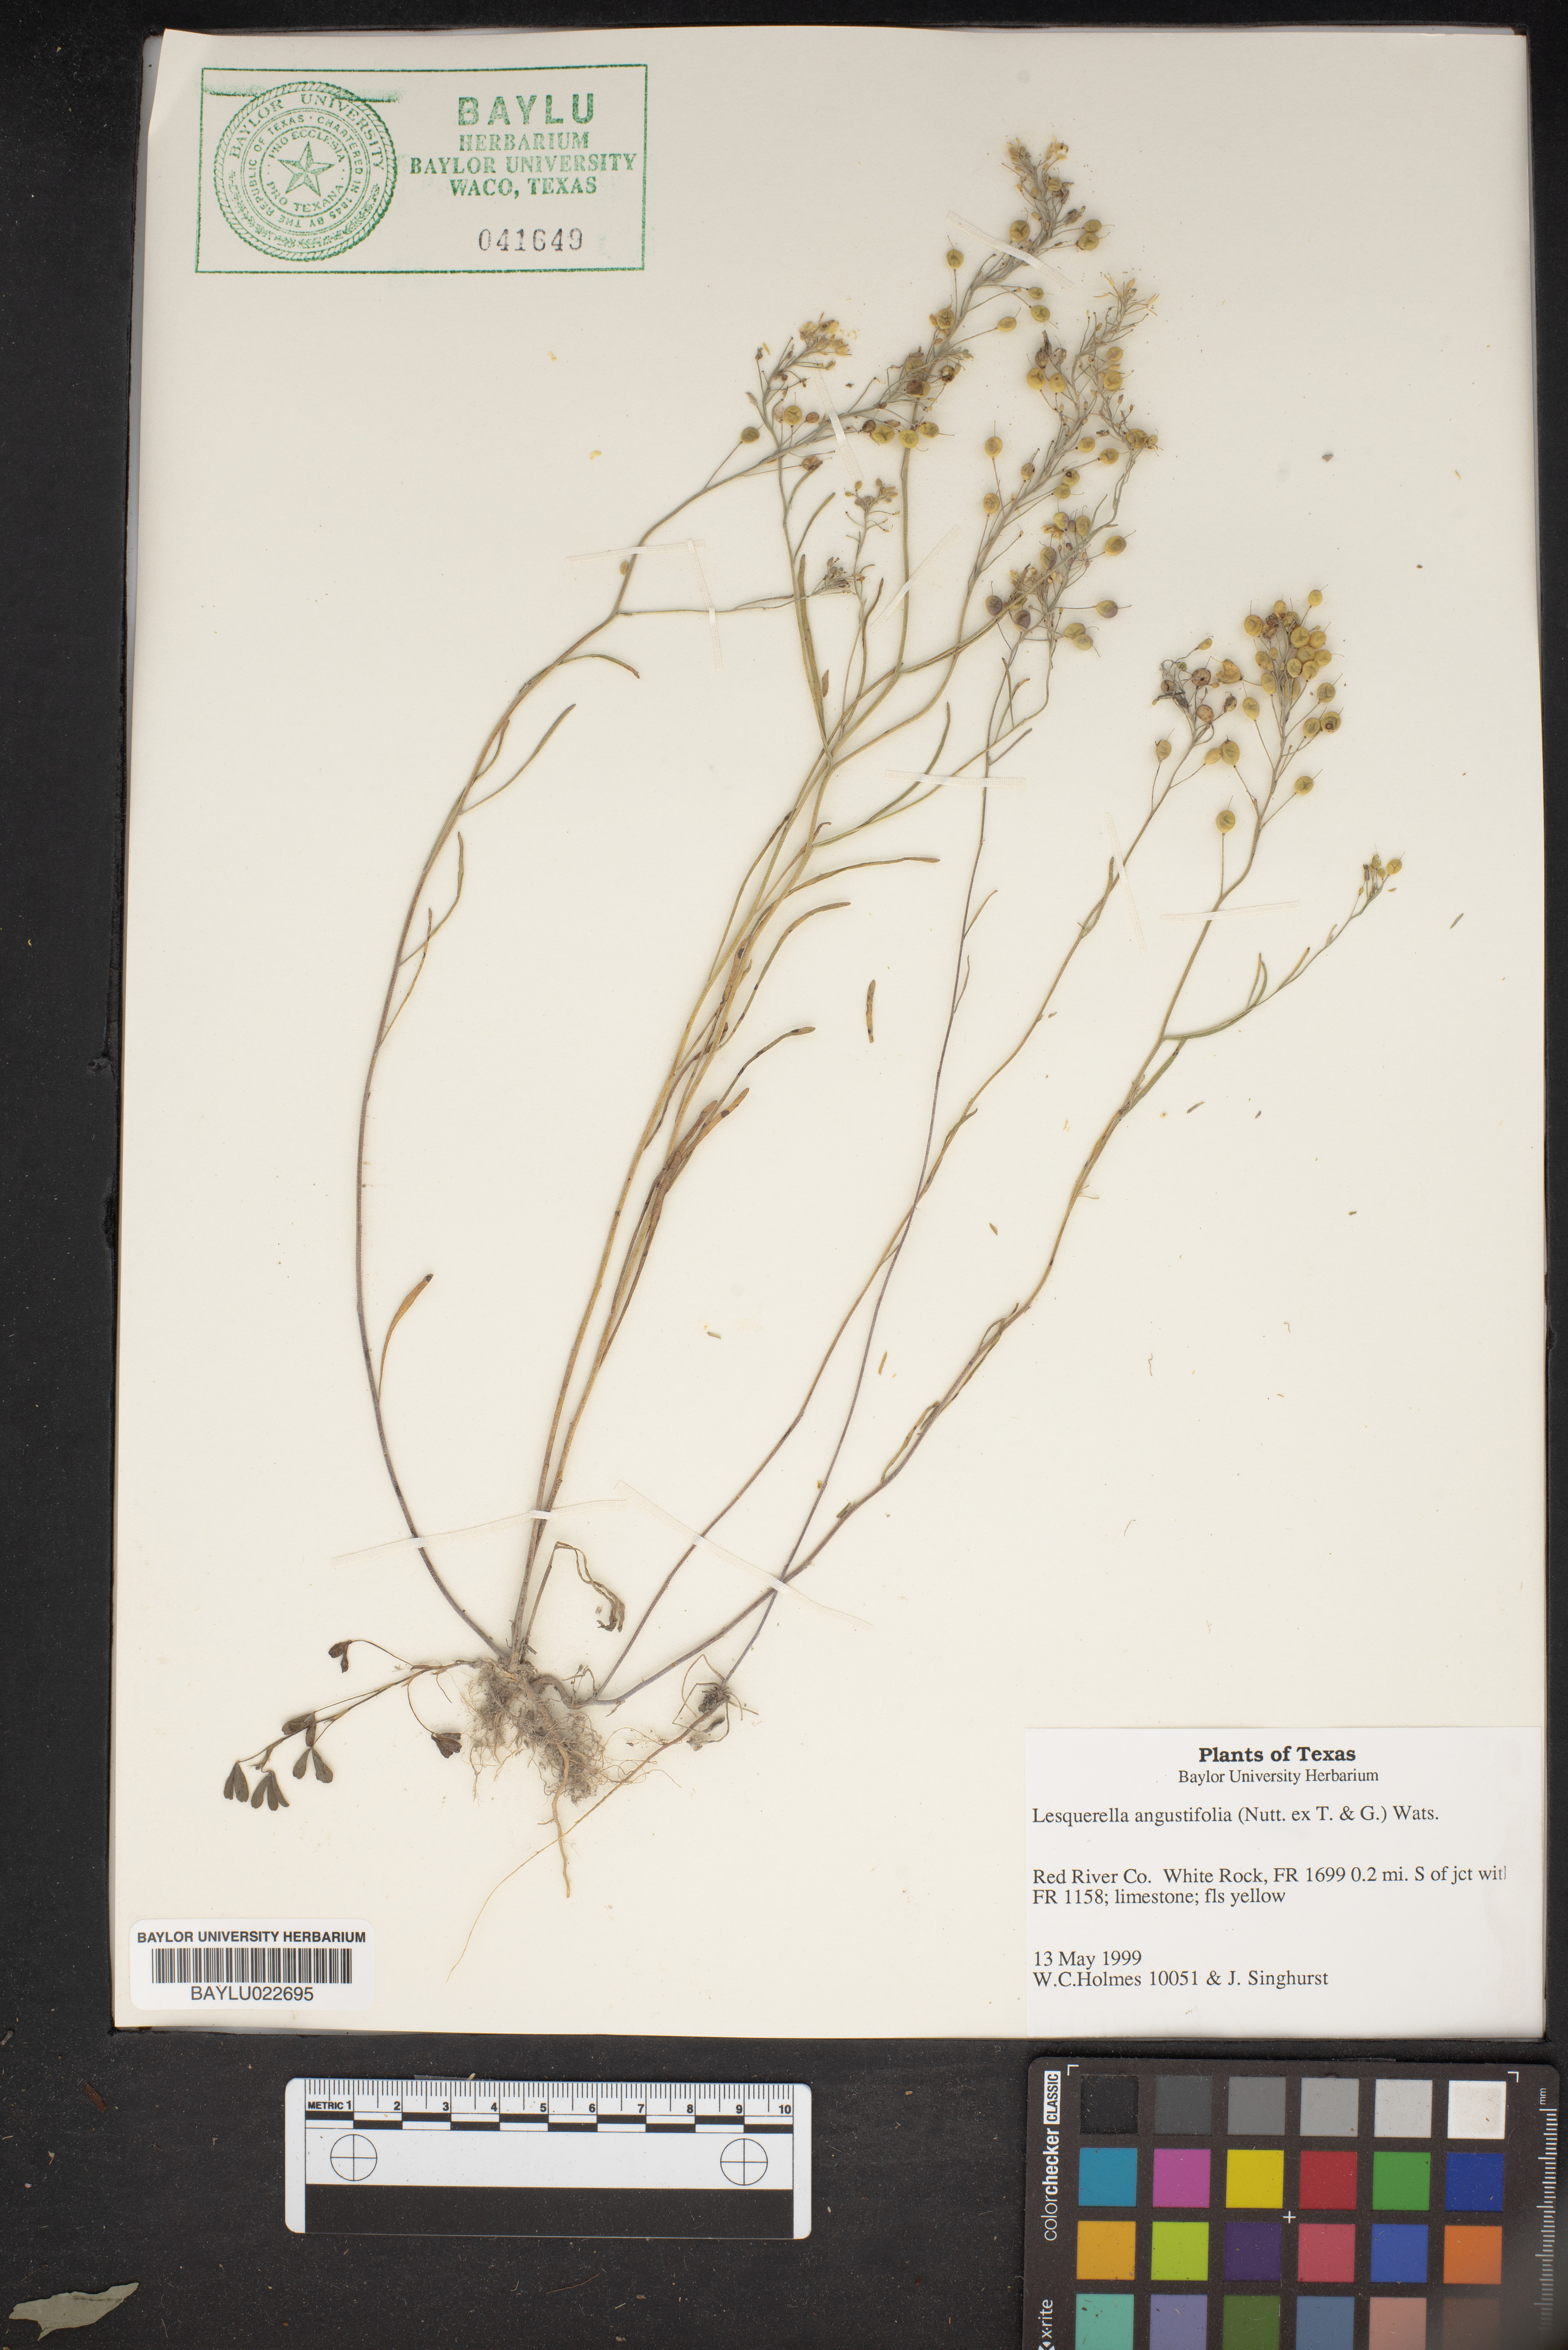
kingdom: Plantae
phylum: Tracheophyta
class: Magnoliopsida
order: Brassicales
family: Brassicaceae
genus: Physaria
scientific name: Physaria angustifolia
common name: Threadleaf bladderpod
